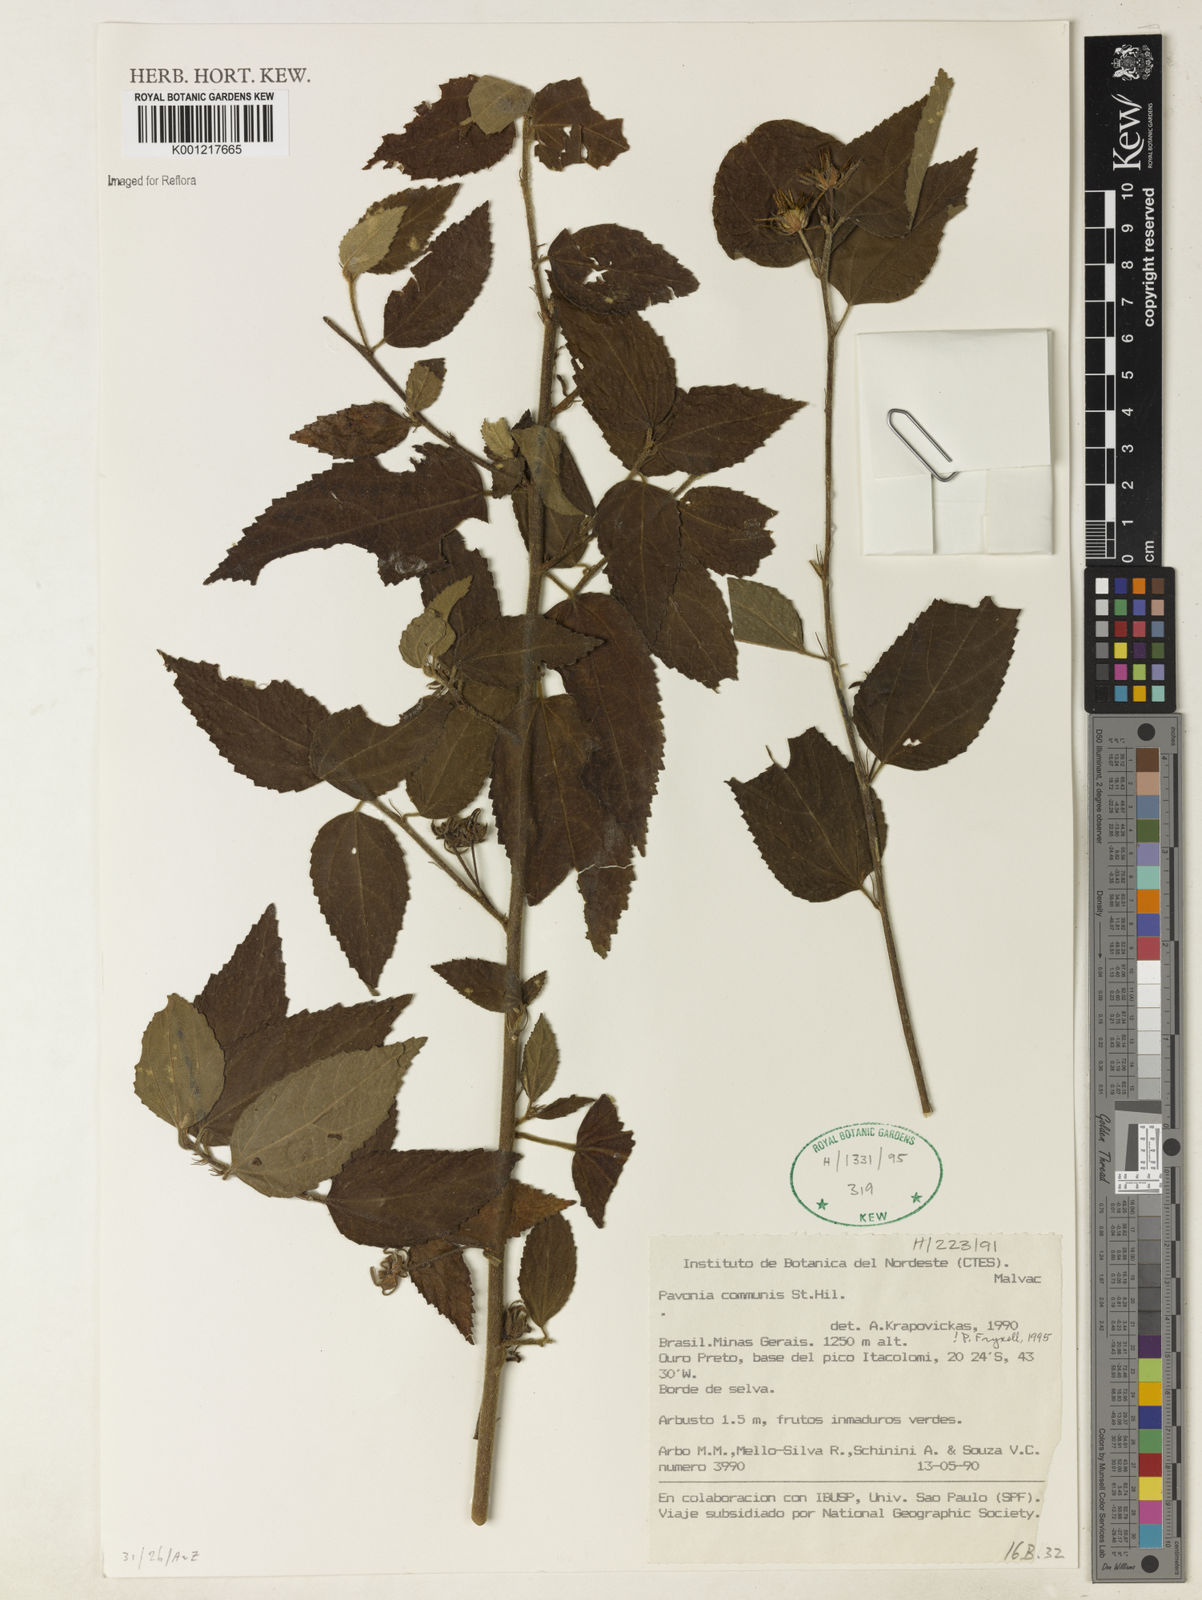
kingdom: Plantae
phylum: Tracheophyta
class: Magnoliopsida
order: Malvales
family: Malvaceae
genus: Pavonia
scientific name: Pavonia communis
